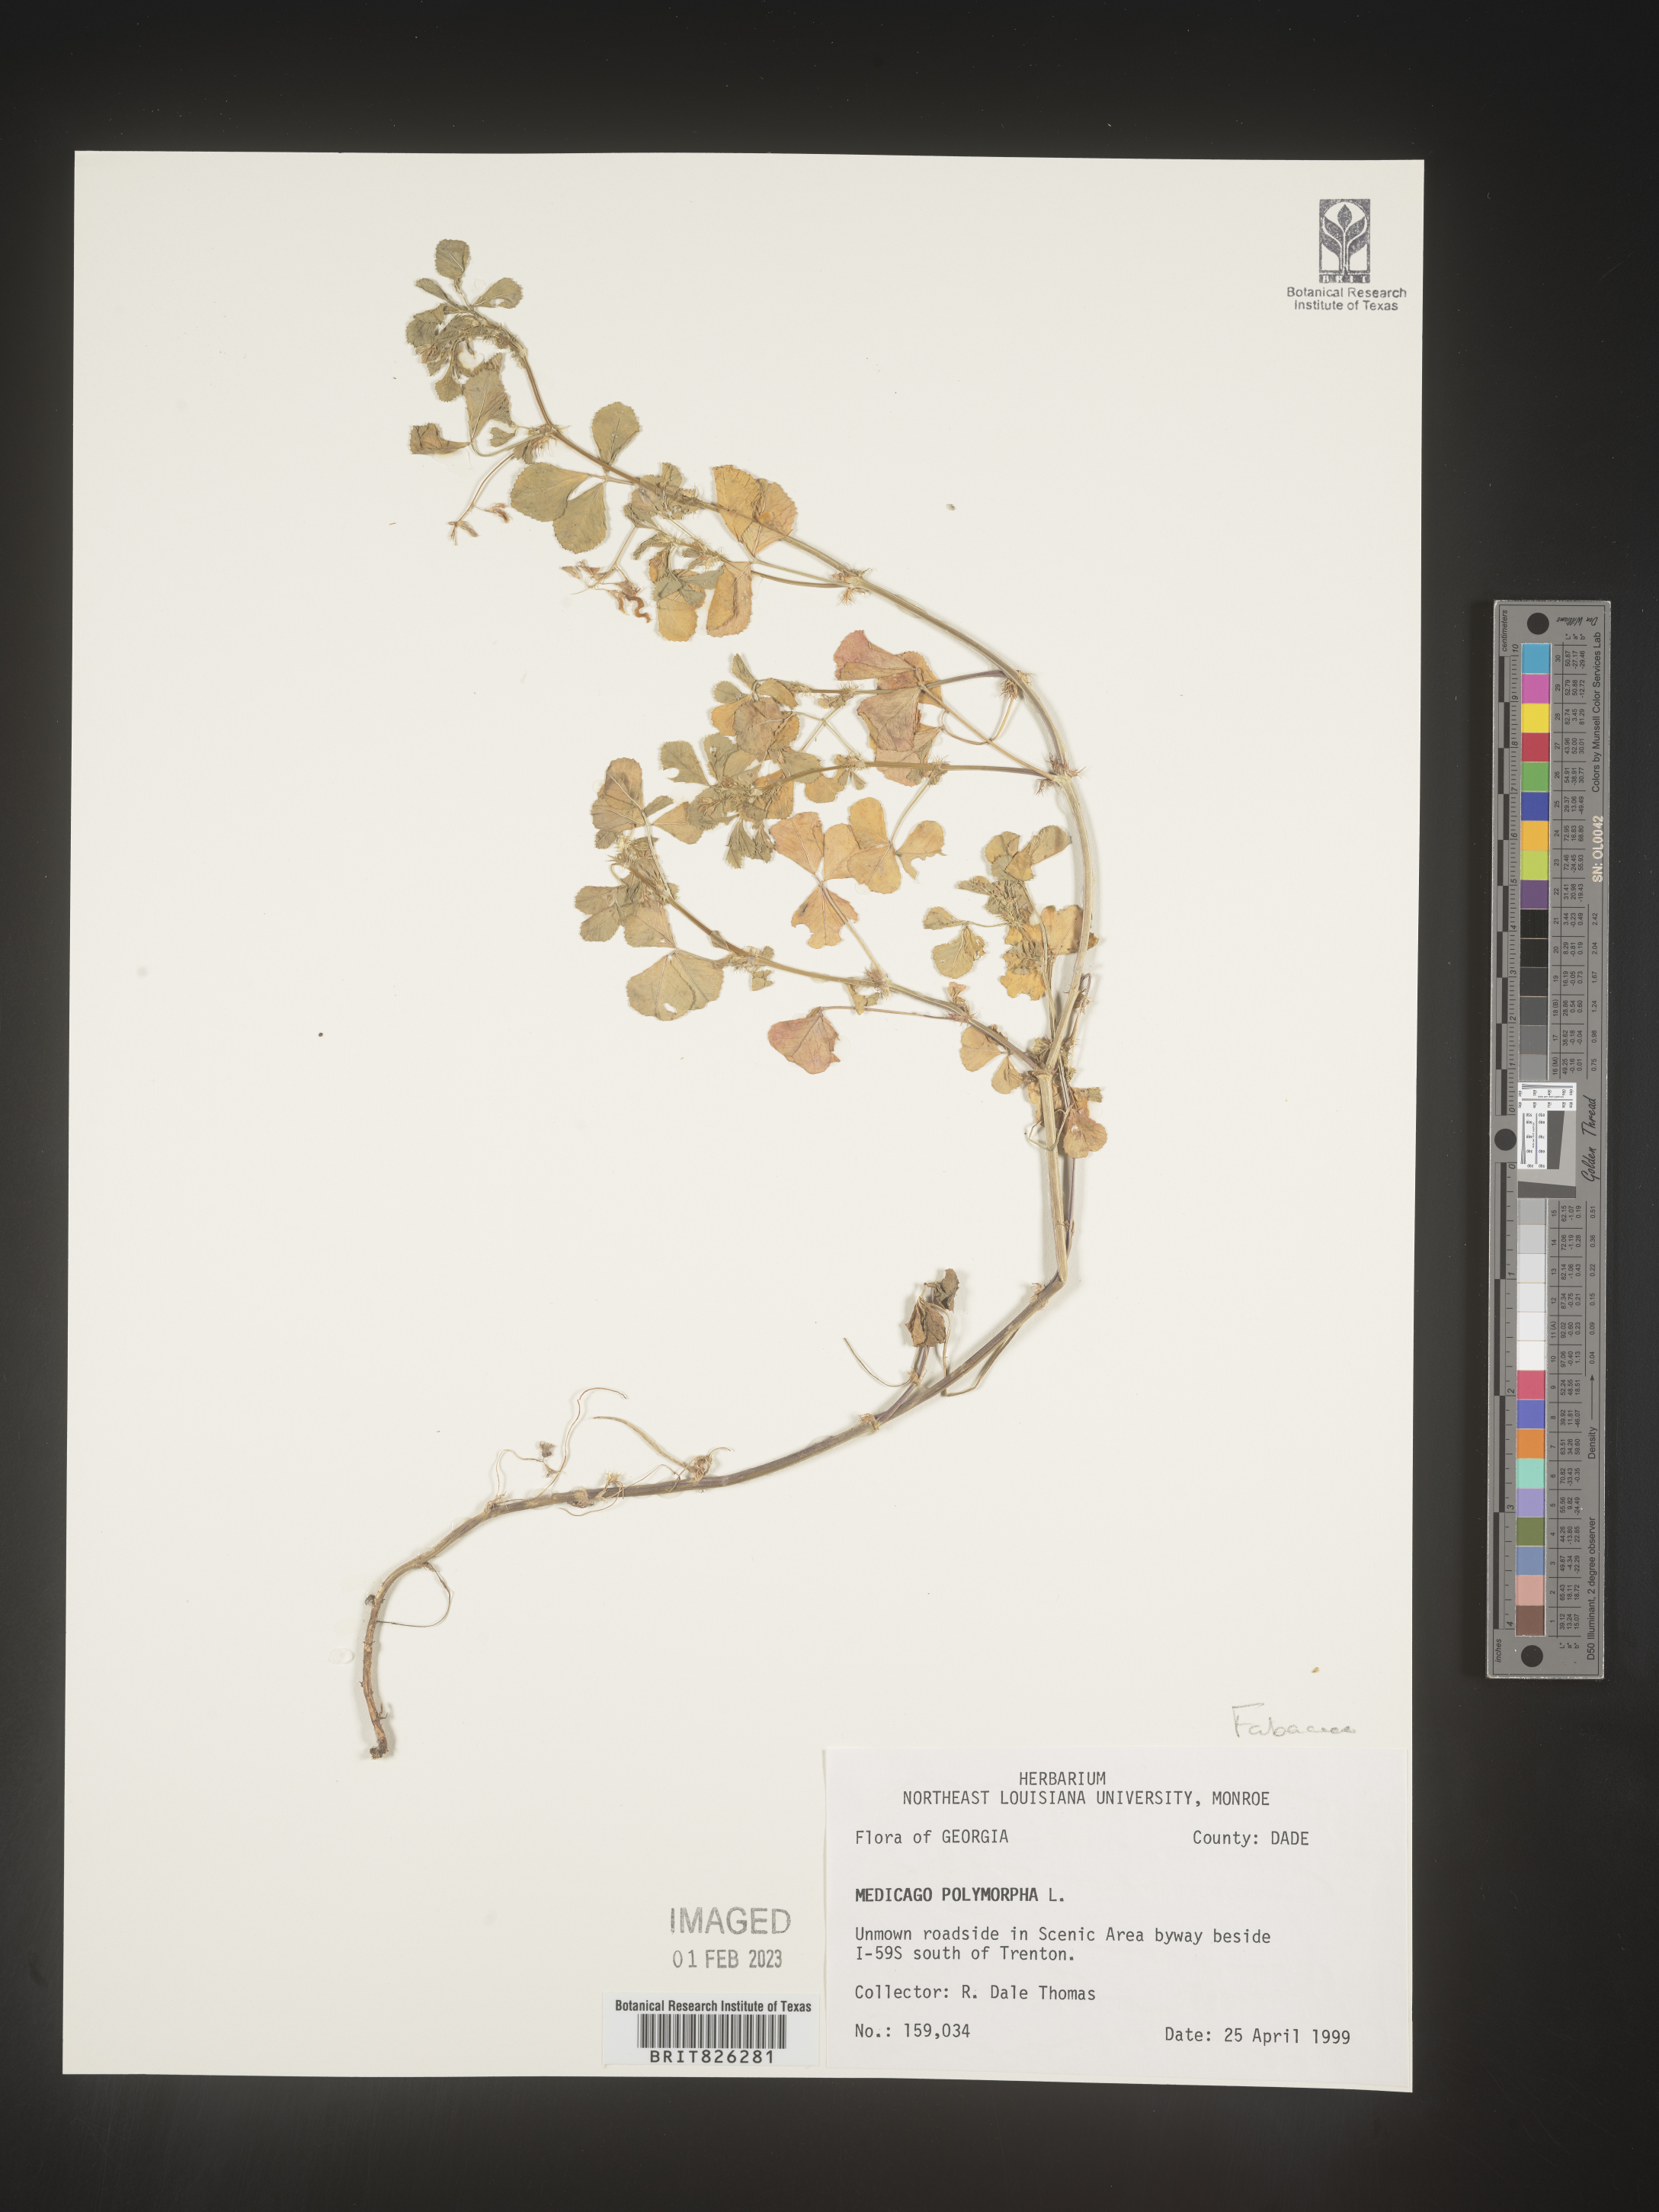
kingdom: Plantae
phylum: Tracheophyta
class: Magnoliopsida
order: Fabales
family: Fabaceae
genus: Medicago
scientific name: Medicago polymorpha
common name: Burclover
